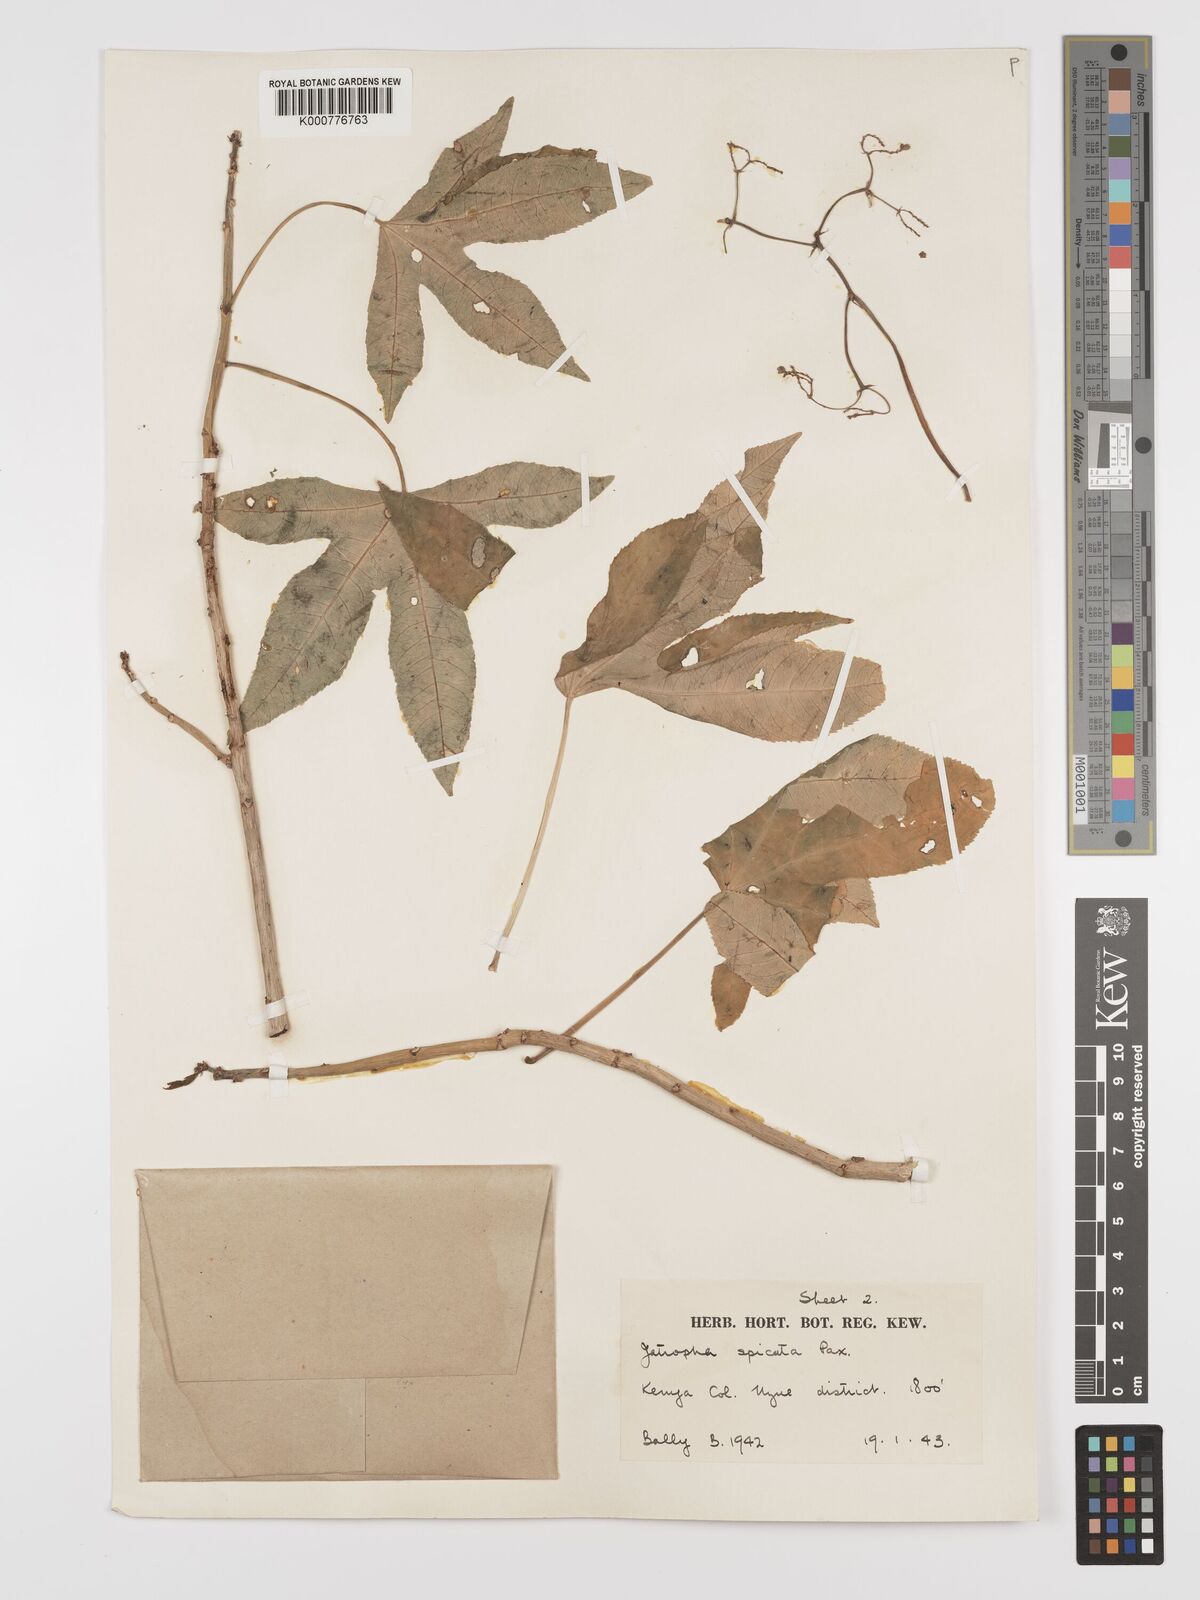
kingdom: Plantae
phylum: Tracheophyta
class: Magnoliopsida
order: Malpighiales
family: Euphorbiaceae
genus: Jatropha
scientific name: Jatropha spicata
